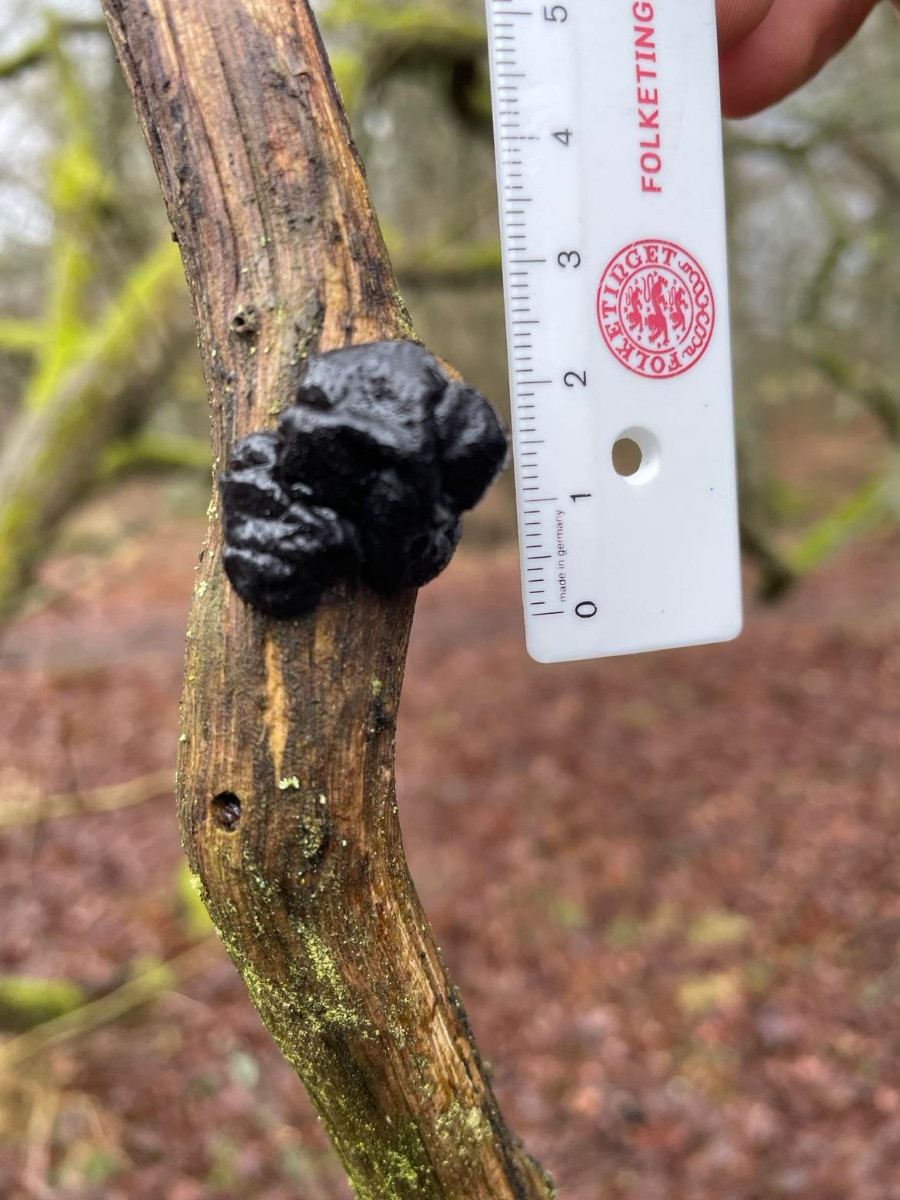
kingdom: Fungi
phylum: Basidiomycota
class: Agaricomycetes
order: Auriculariales
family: Auriculariaceae
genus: Exidia
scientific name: Exidia nigricans
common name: almindelig bævretop
